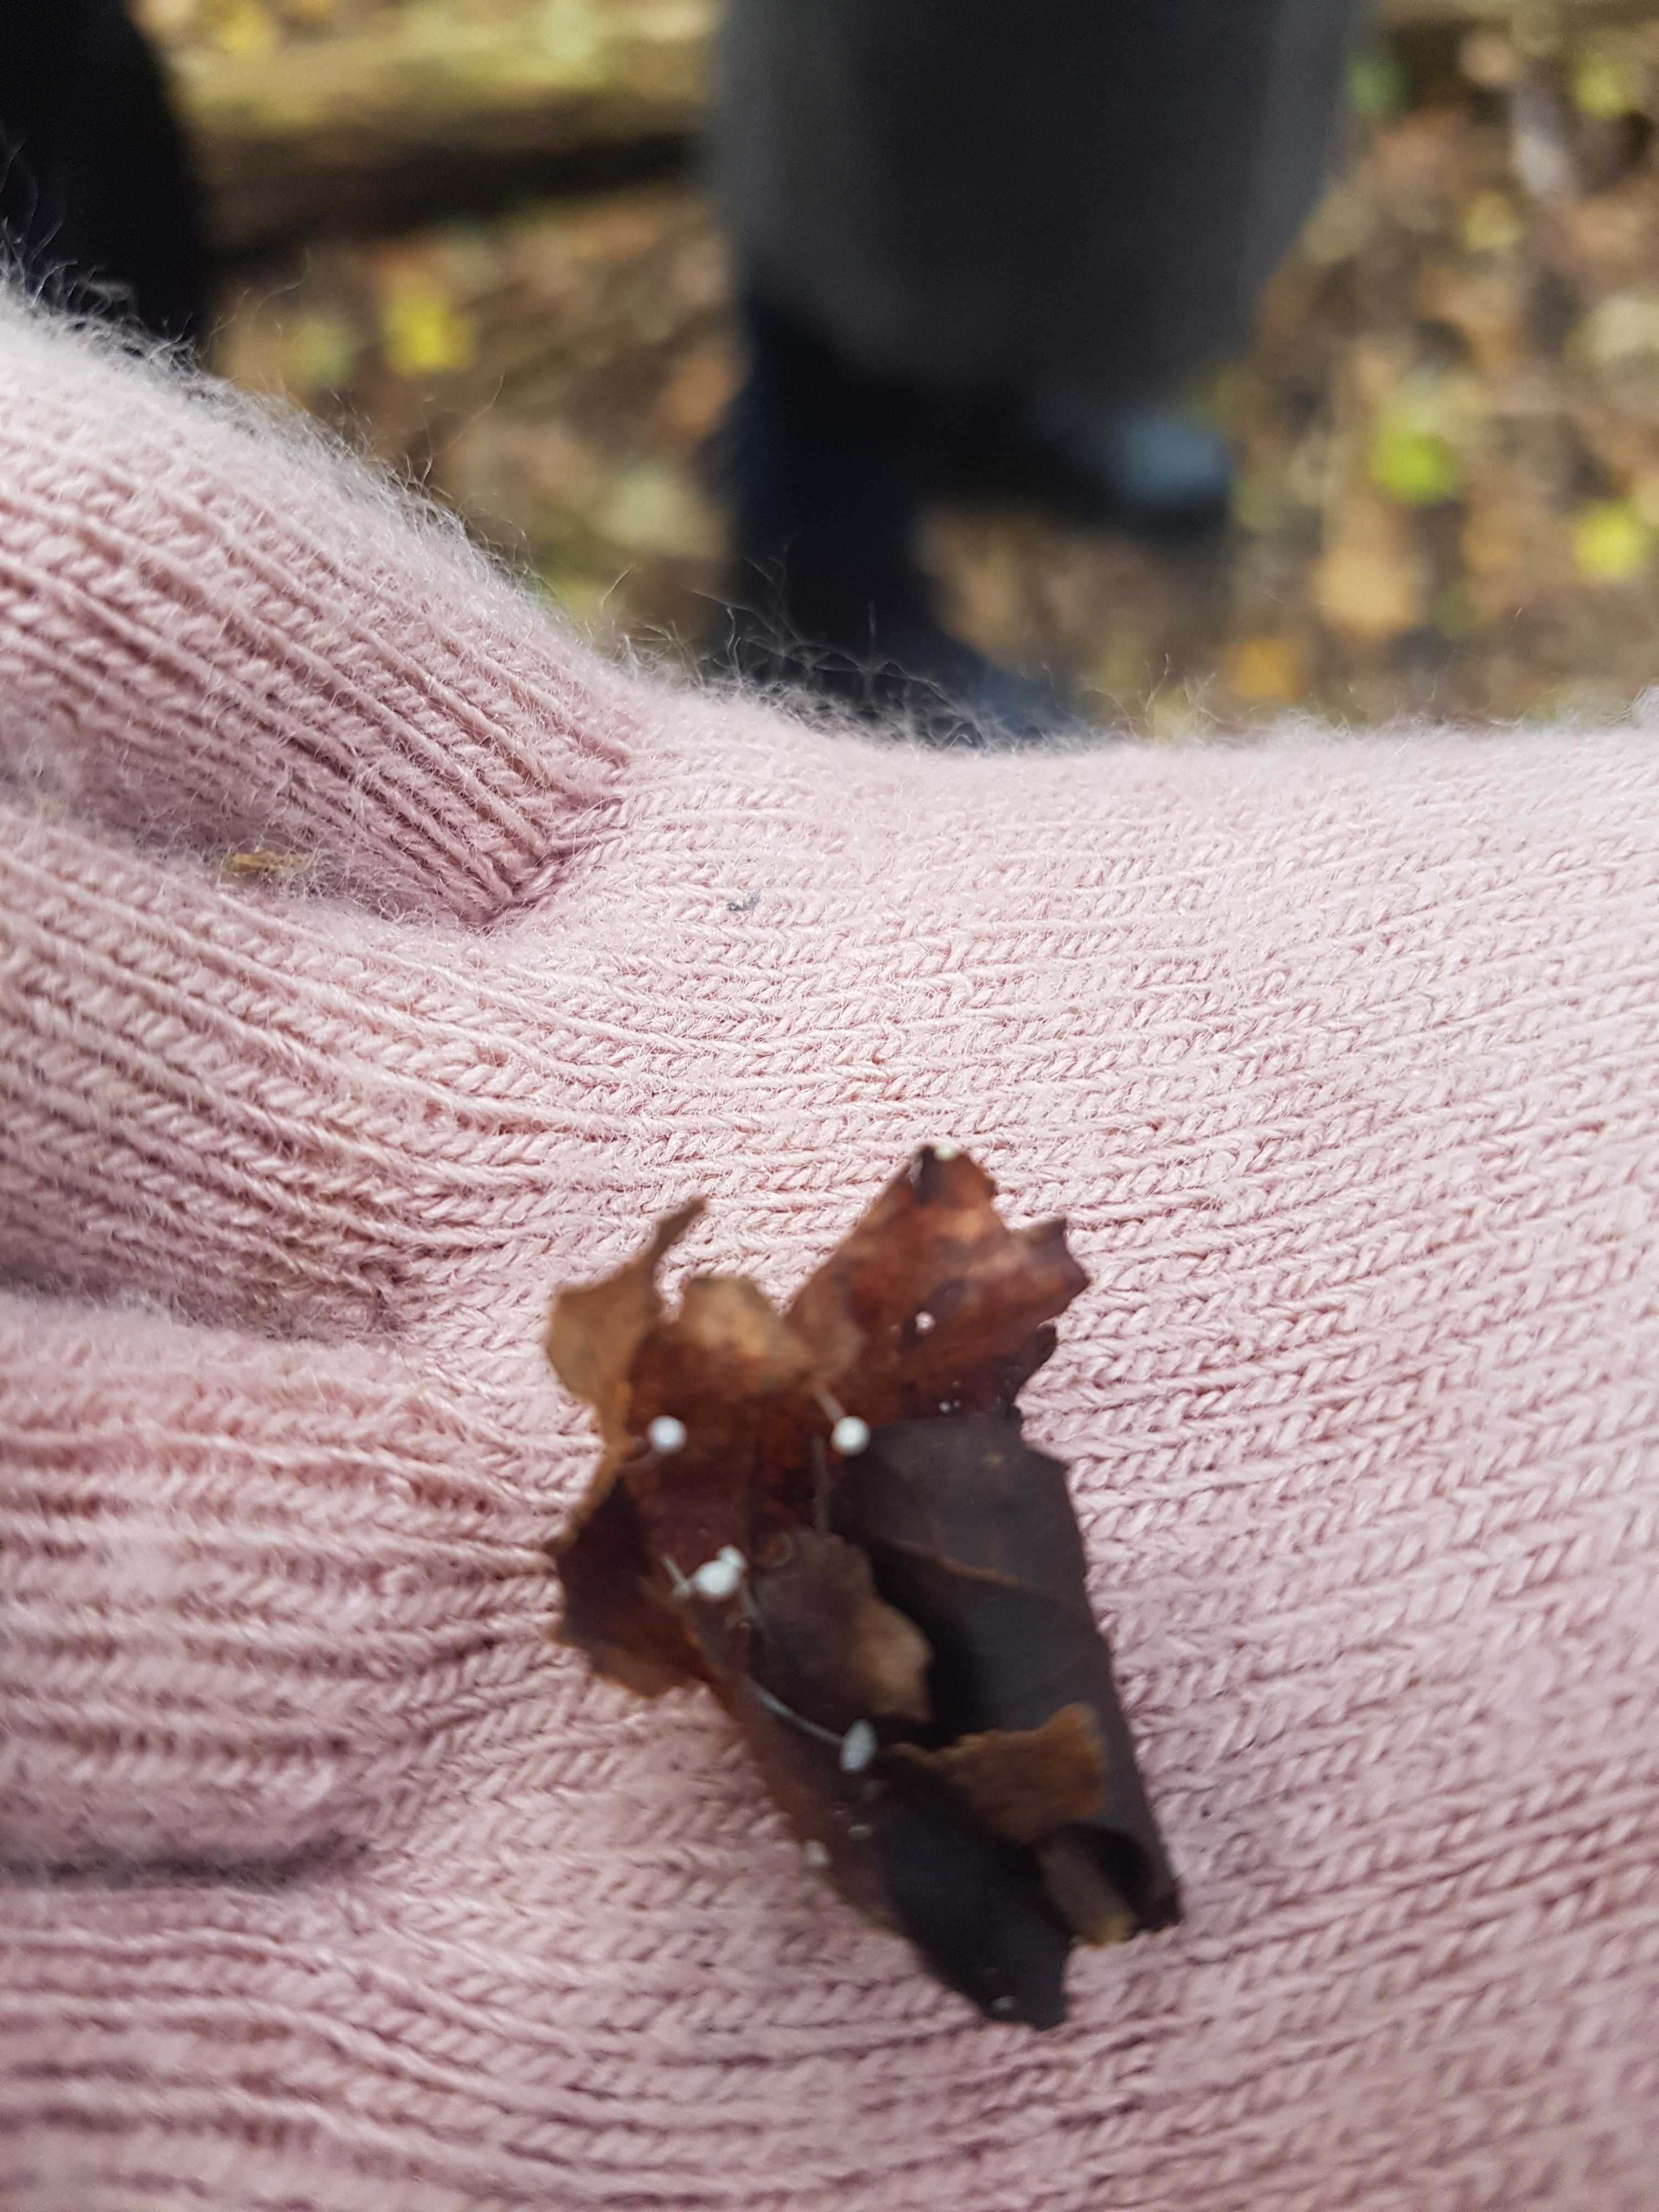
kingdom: Fungi
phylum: Basidiomycota
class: Agaricomycetes
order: Agaricales
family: Mycenaceae
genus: Mycena
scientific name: Mycena
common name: huesvamp
